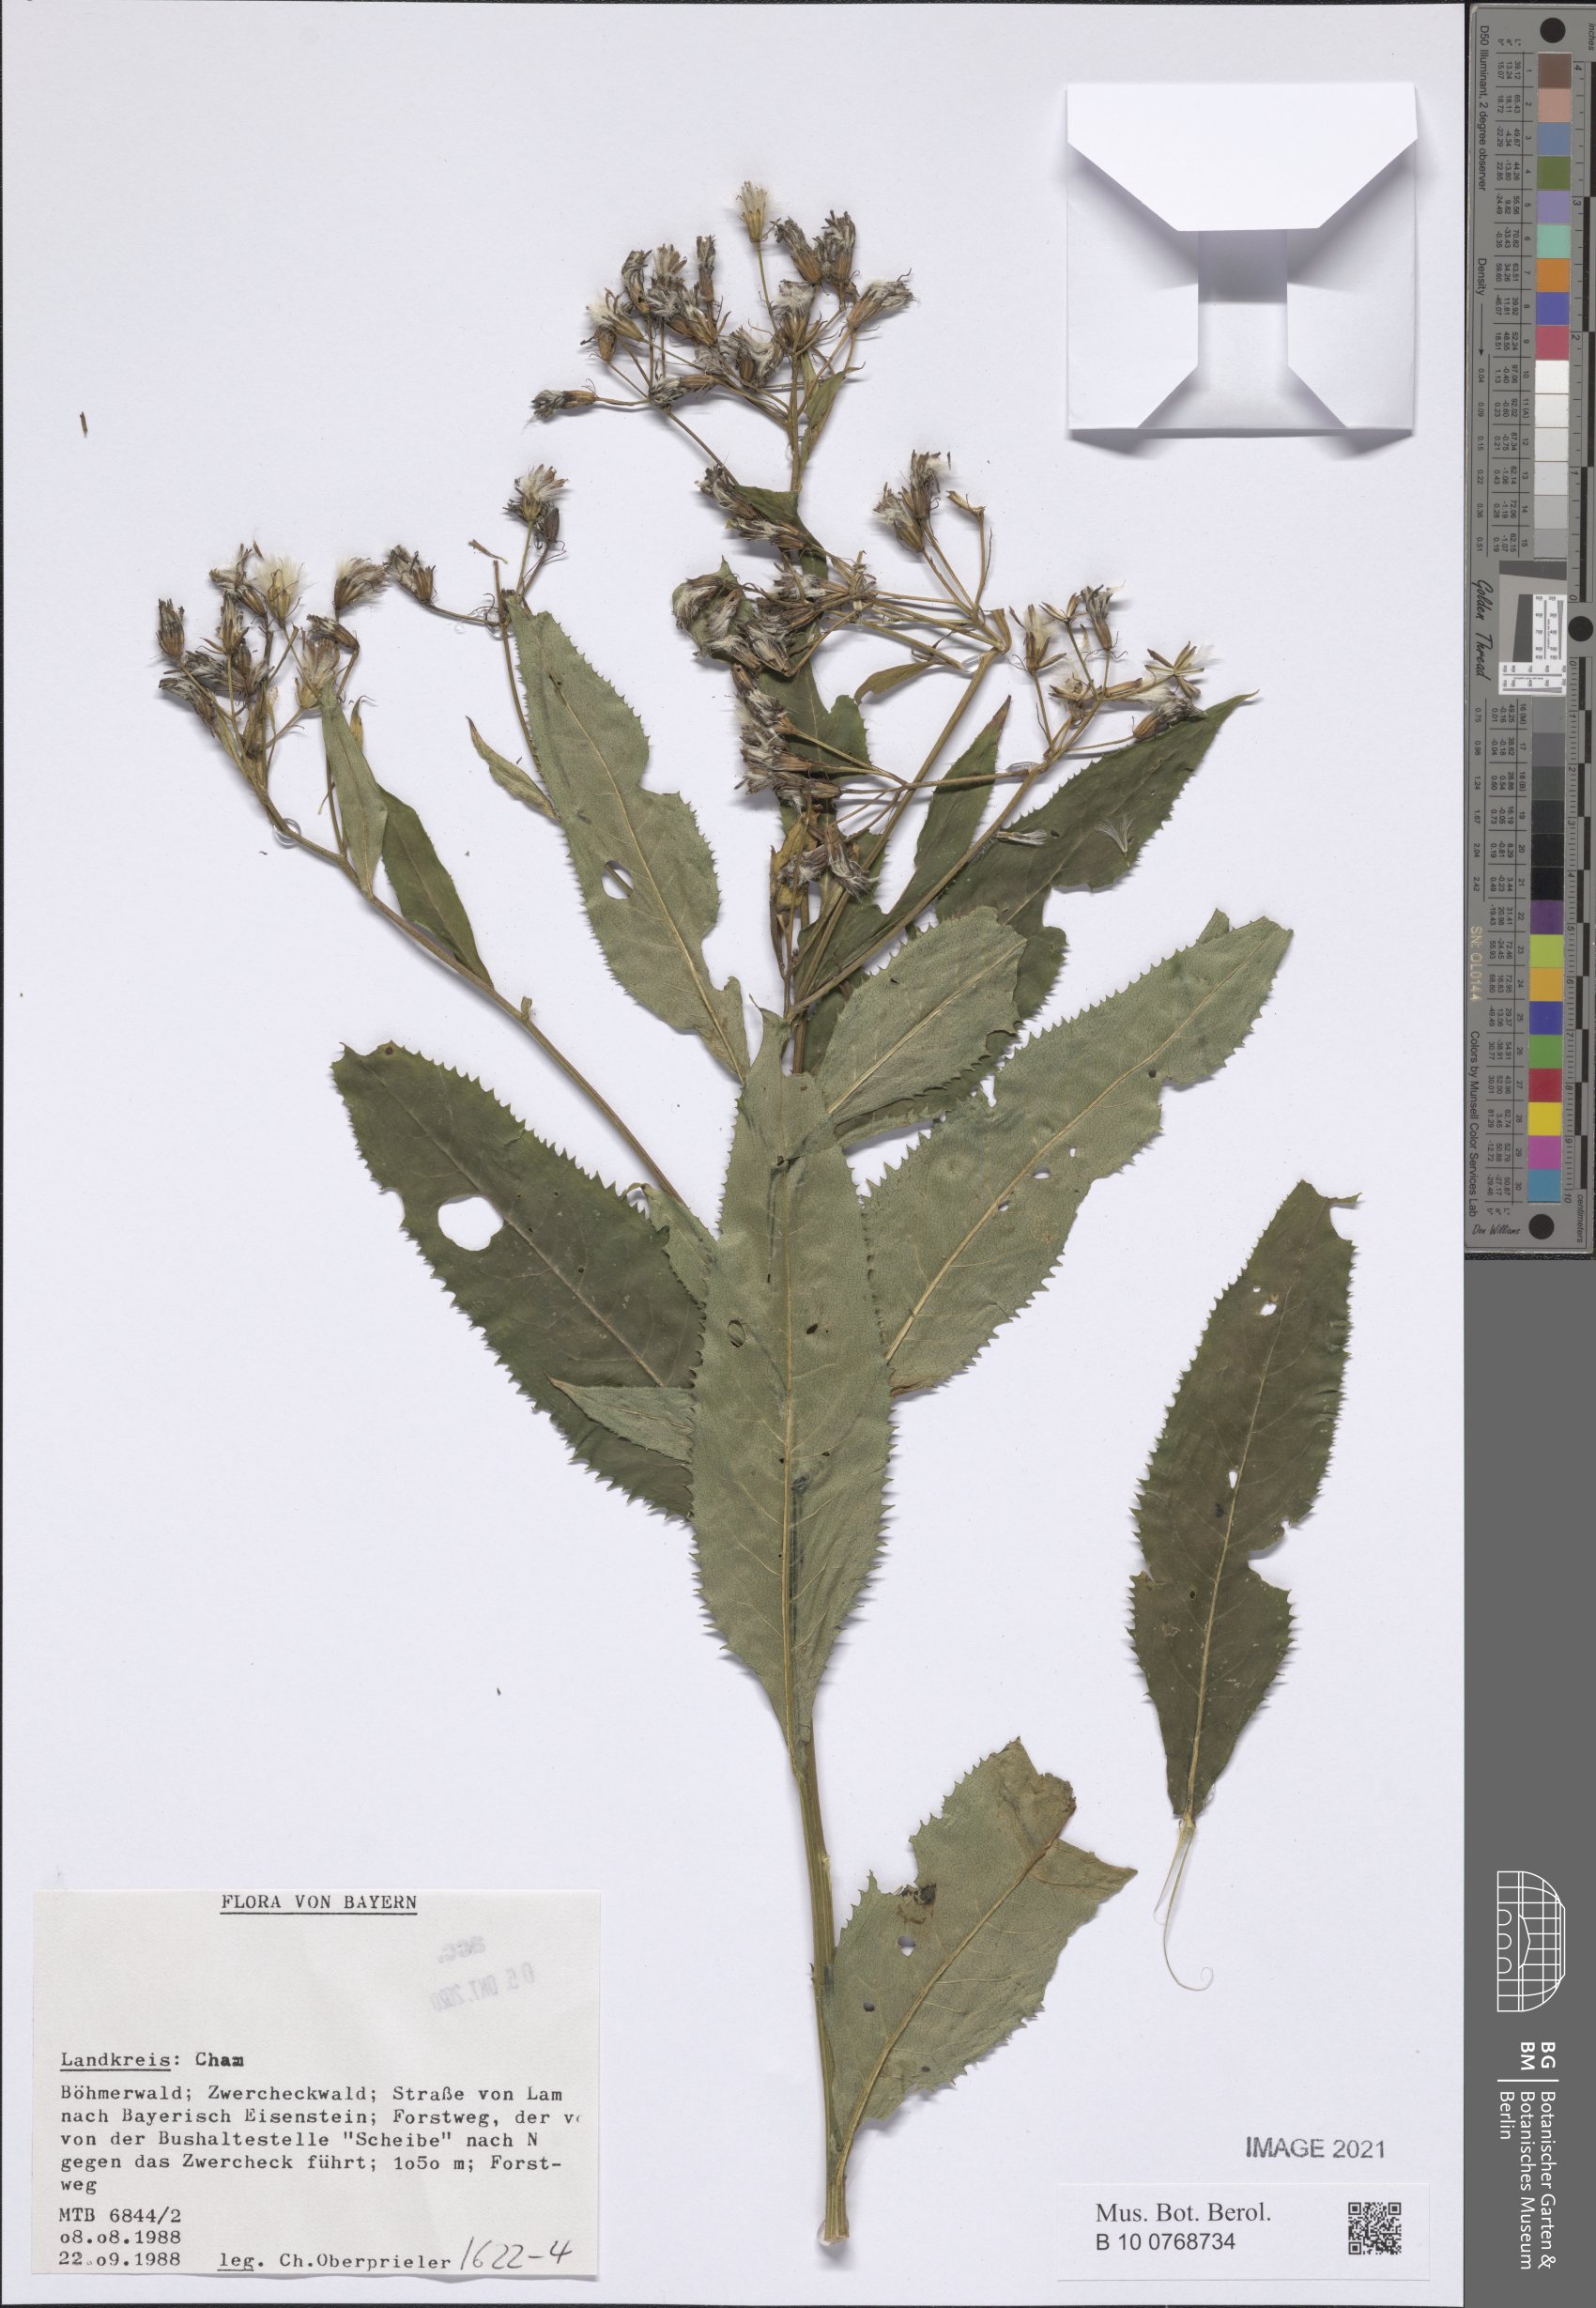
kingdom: Plantae
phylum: Tracheophyta
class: Magnoliopsida
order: Asterales
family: Asteraceae
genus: Senecio
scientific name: Senecio
